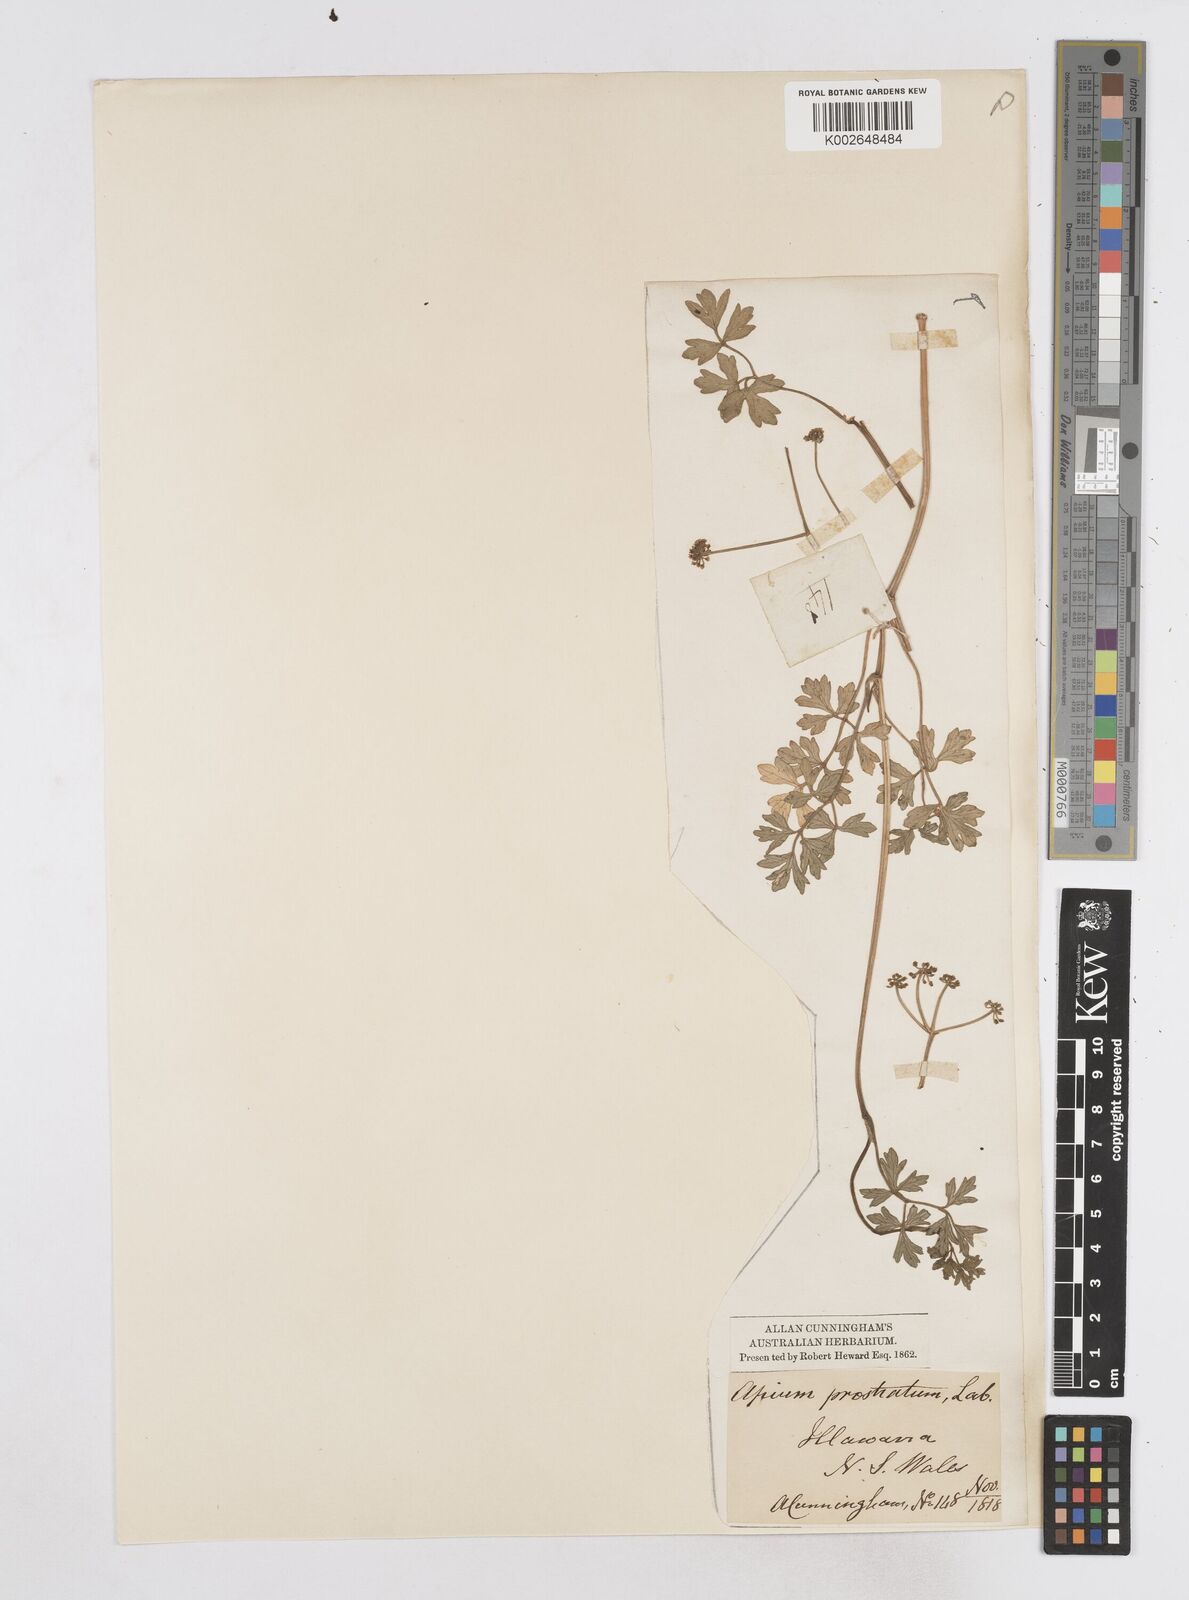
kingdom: Plantae
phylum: Tracheophyta
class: Magnoliopsida
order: Apiales
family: Apiaceae
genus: Apium
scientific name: Apium prostratum
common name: Prostrate marshwort
